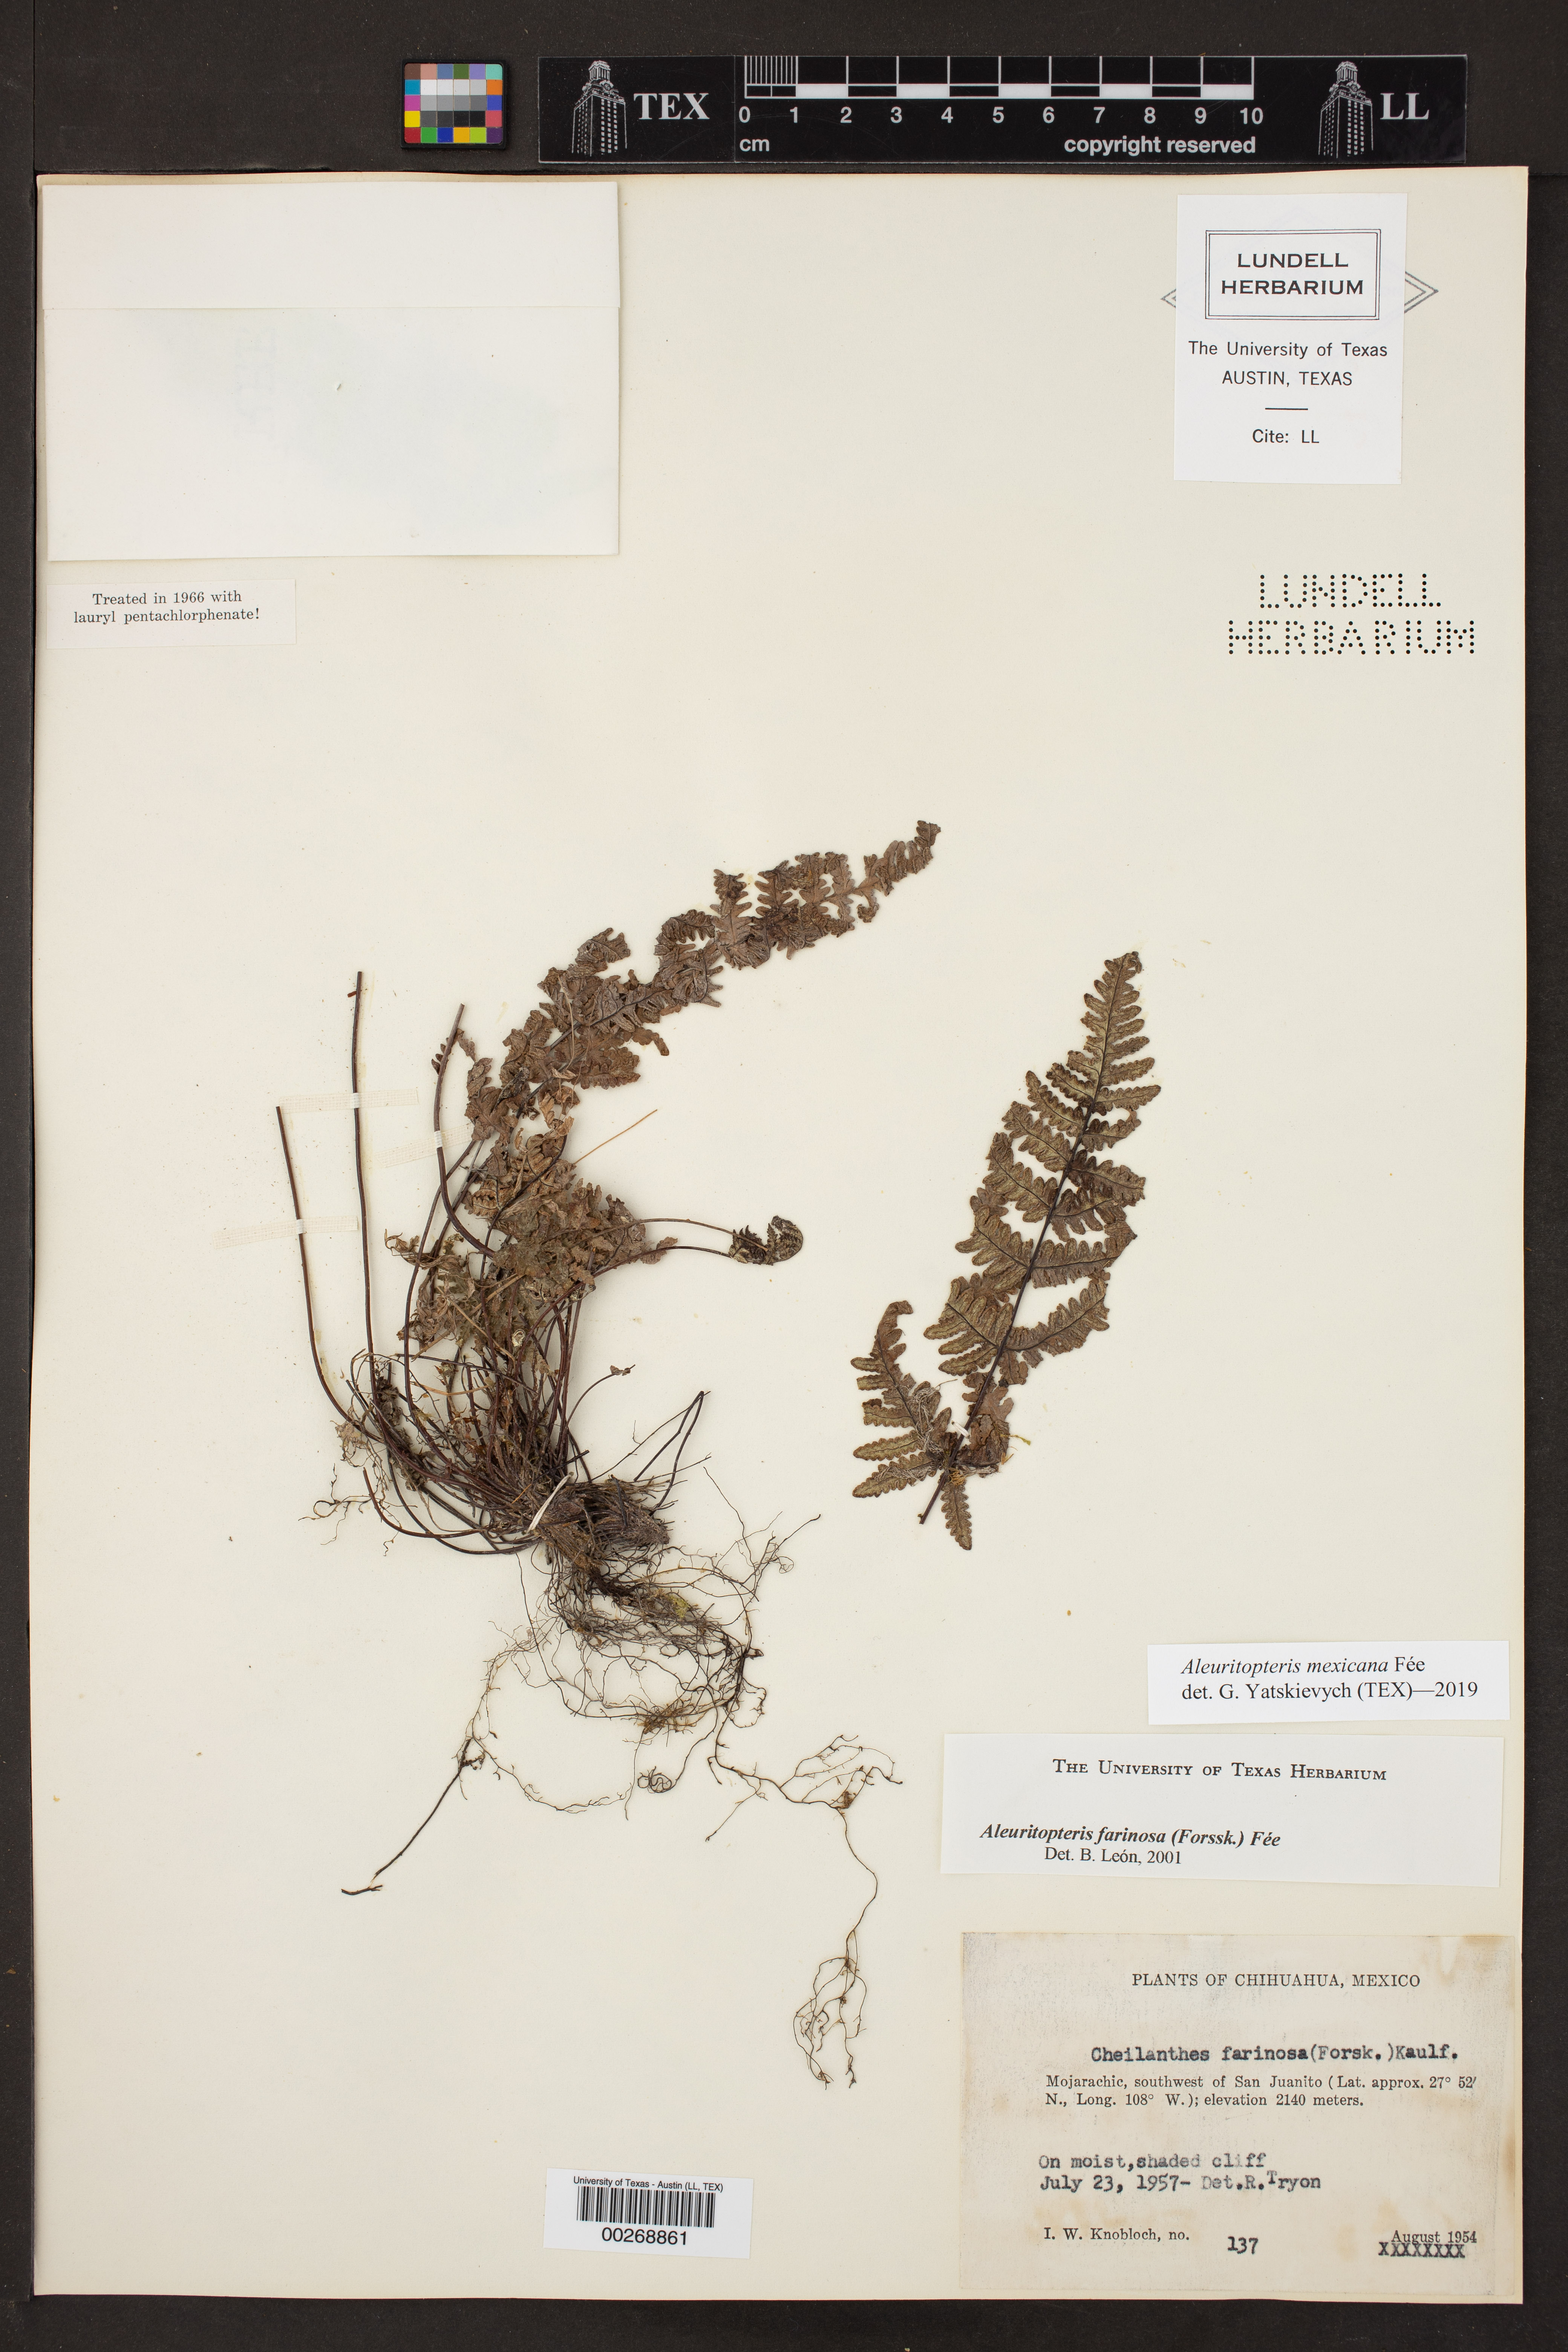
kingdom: Plantae
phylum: Tracheophyta
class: Polypodiopsida
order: Polypodiales
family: Pteridaceae
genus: Aleuritopteris
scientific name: Aleuritopteris mexicana
